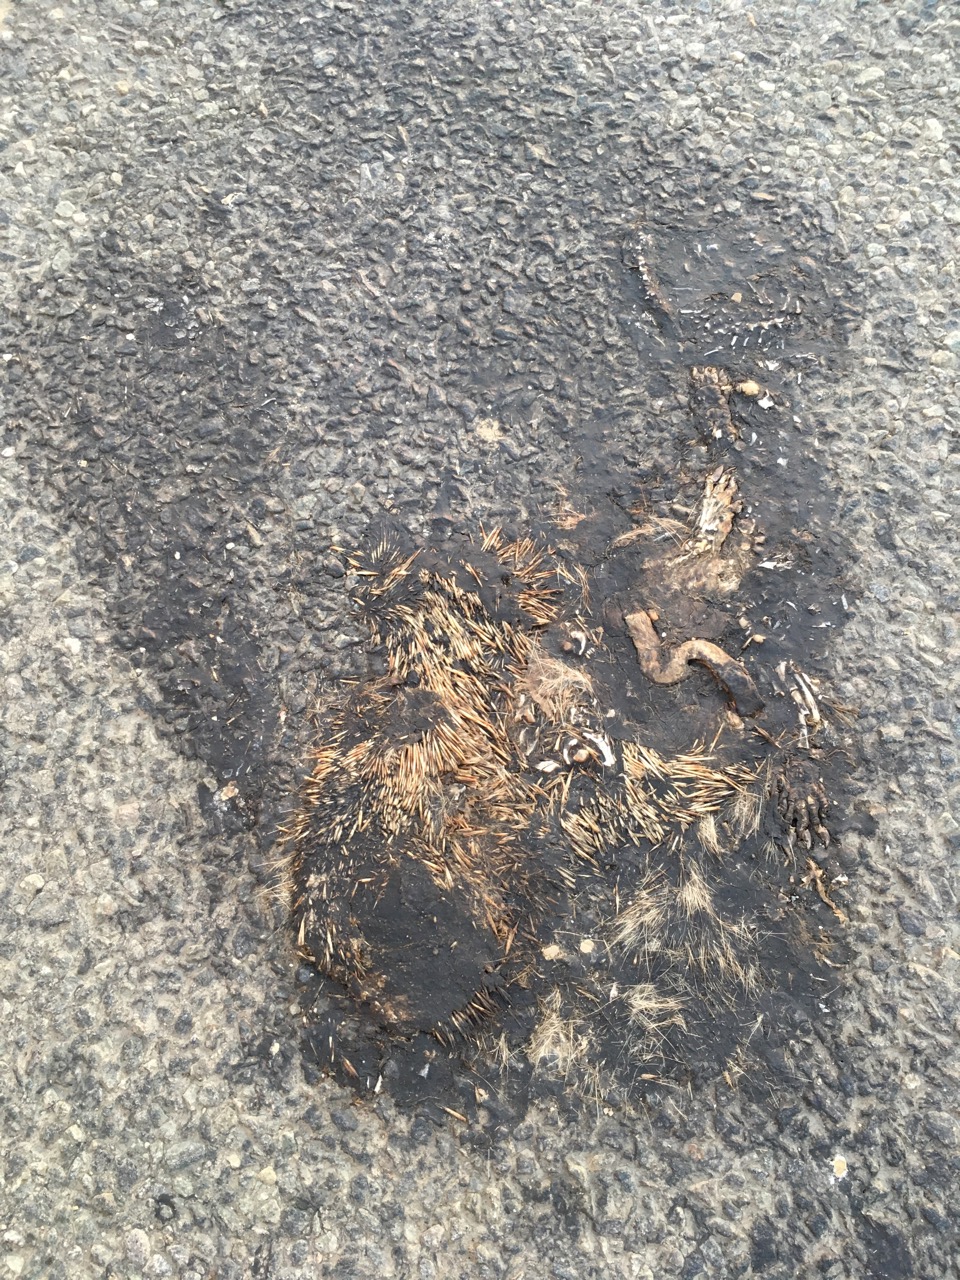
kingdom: Animalia
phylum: Chordata
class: Mammalia
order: Erinaceomorpha
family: Erinaceidae
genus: Erinaceus
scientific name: Erinaceus
